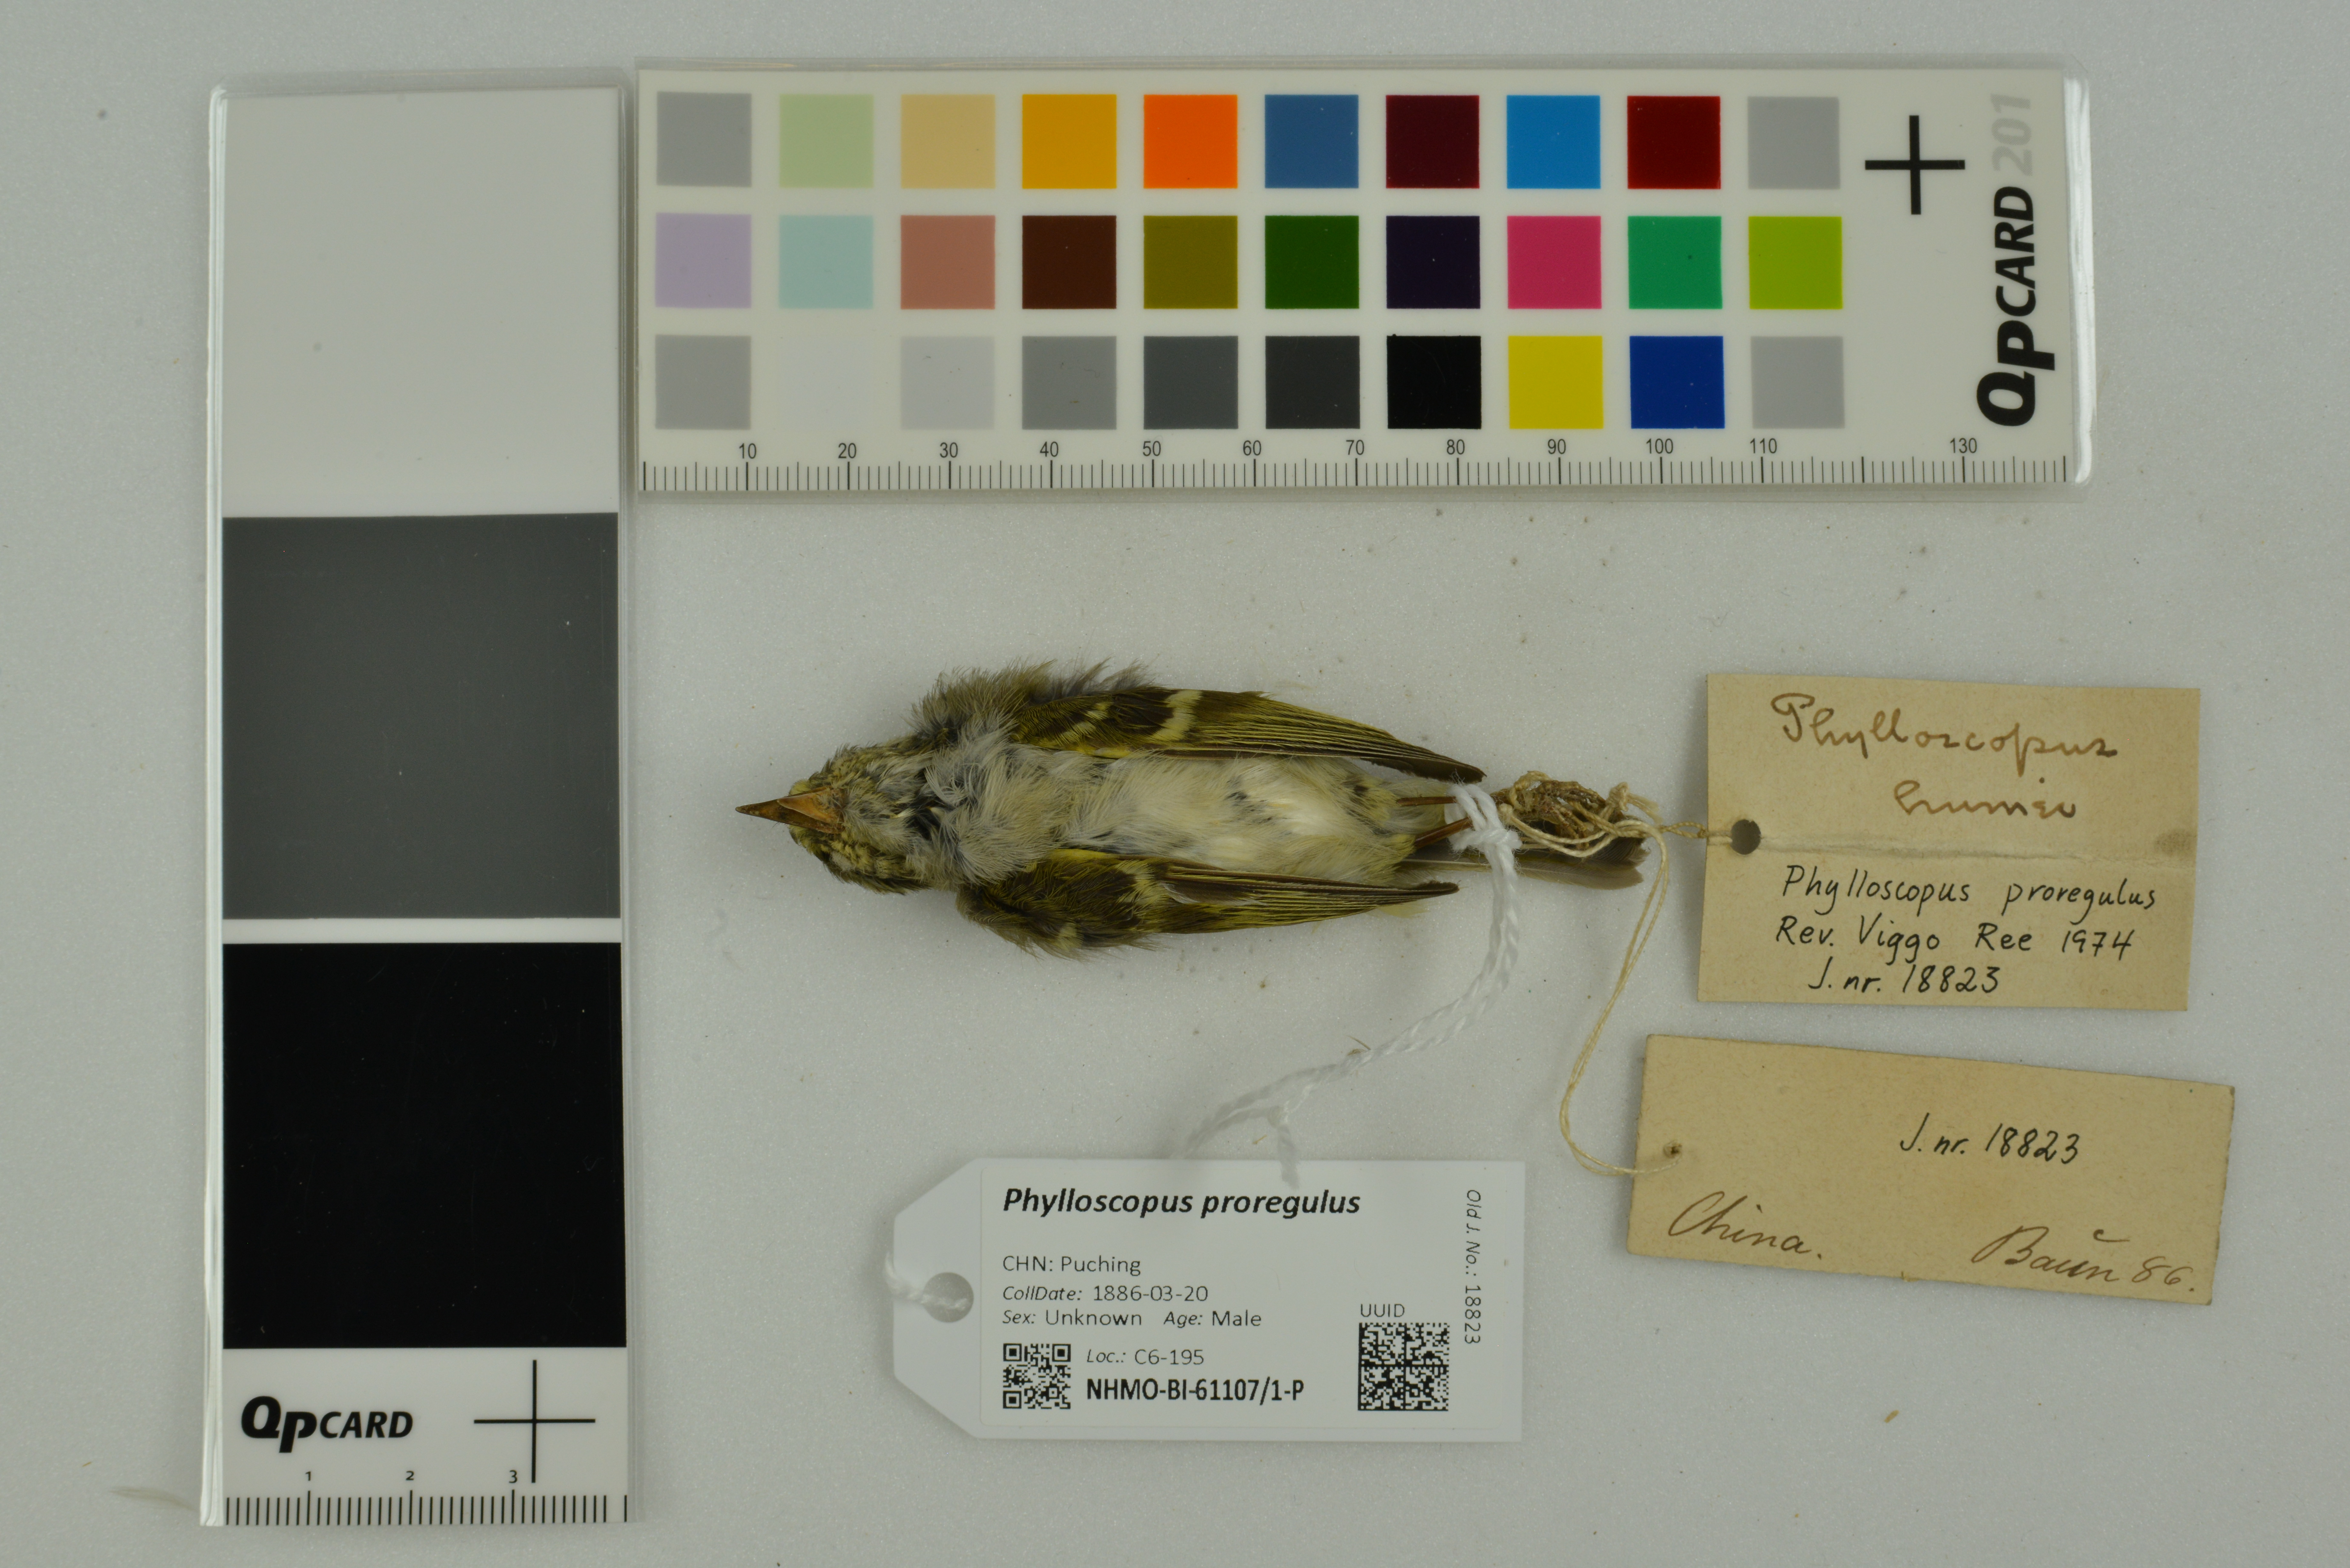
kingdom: Animalia
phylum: Chordata
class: Aves
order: Passeriformes
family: Phylloscopidae
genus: Phylloscopus
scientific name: Phylloscopus proregulus
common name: Pallas's leaf warbler
